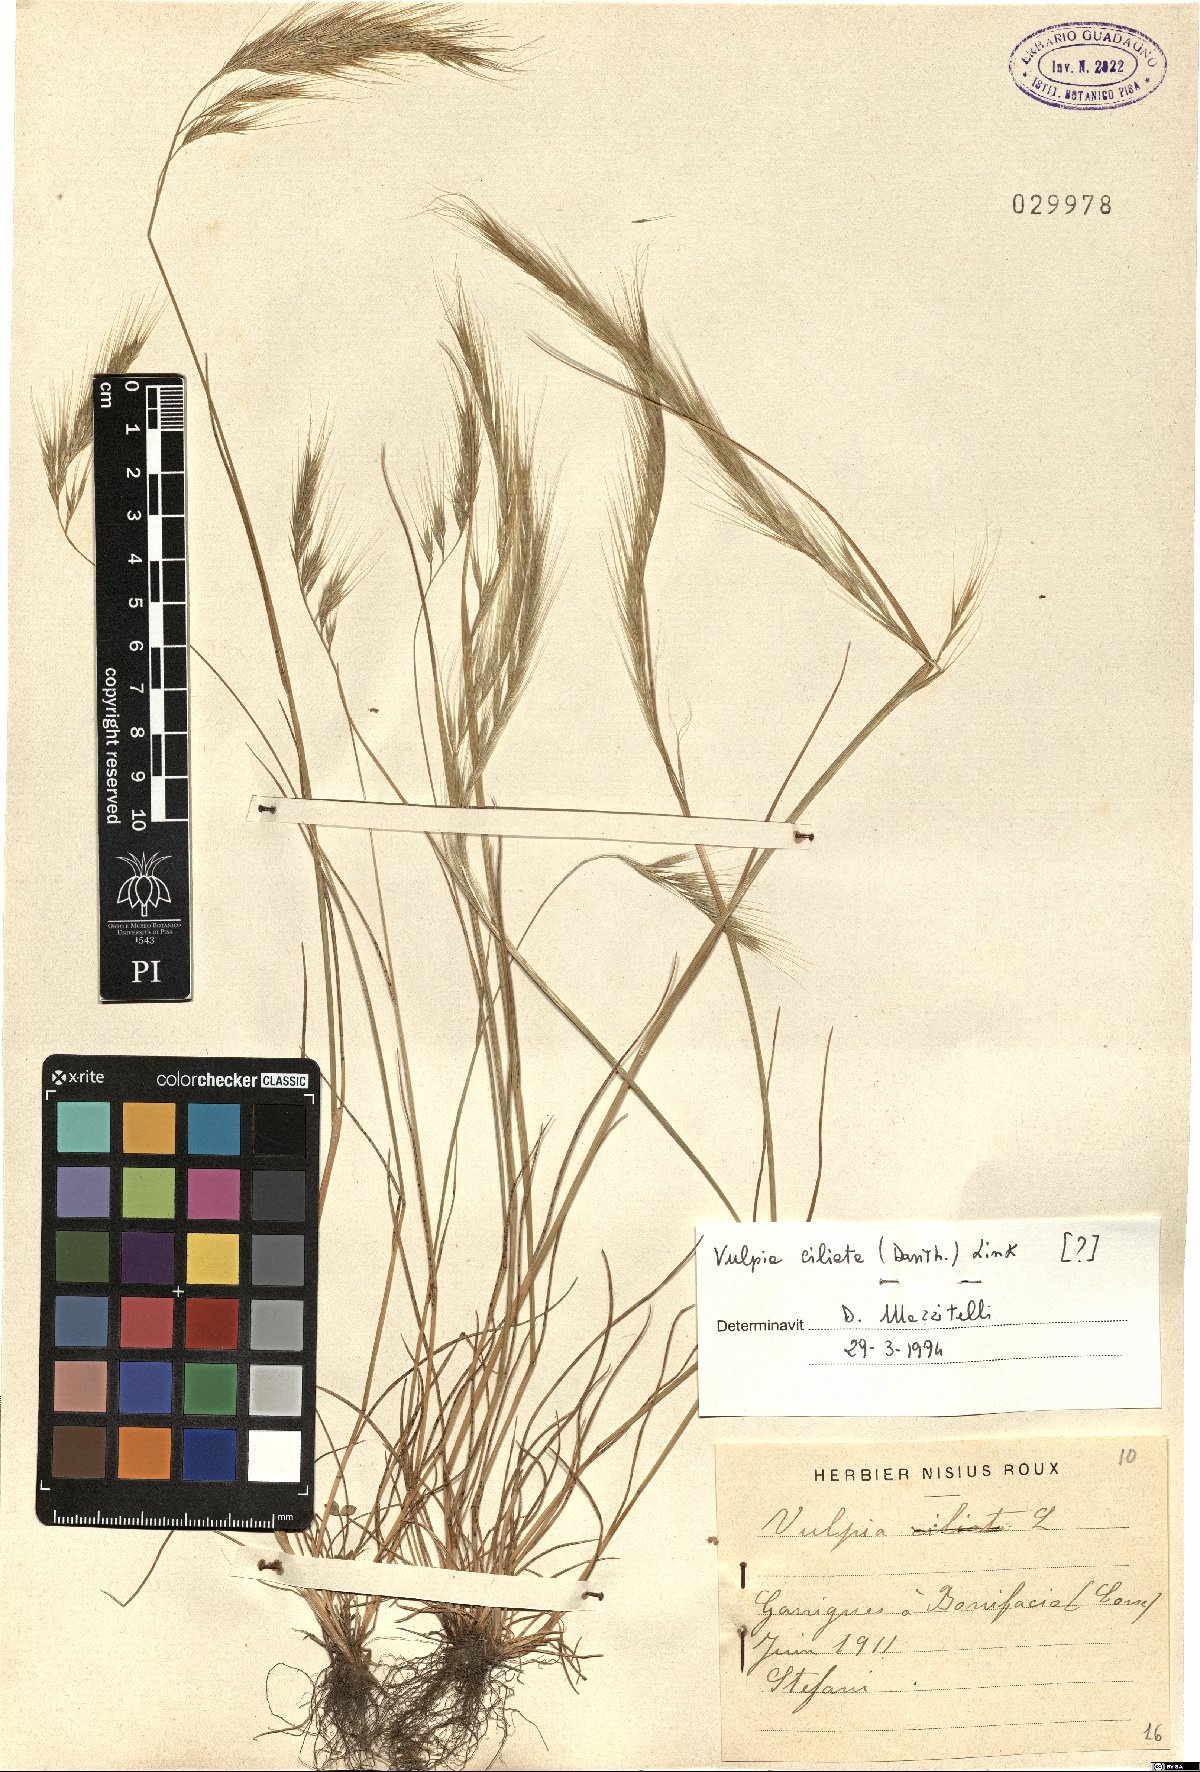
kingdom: Plantae
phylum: Tracheophyta
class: Liliopsida
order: Poales
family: Poaceae
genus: Festuca
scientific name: Festuca ambigua
